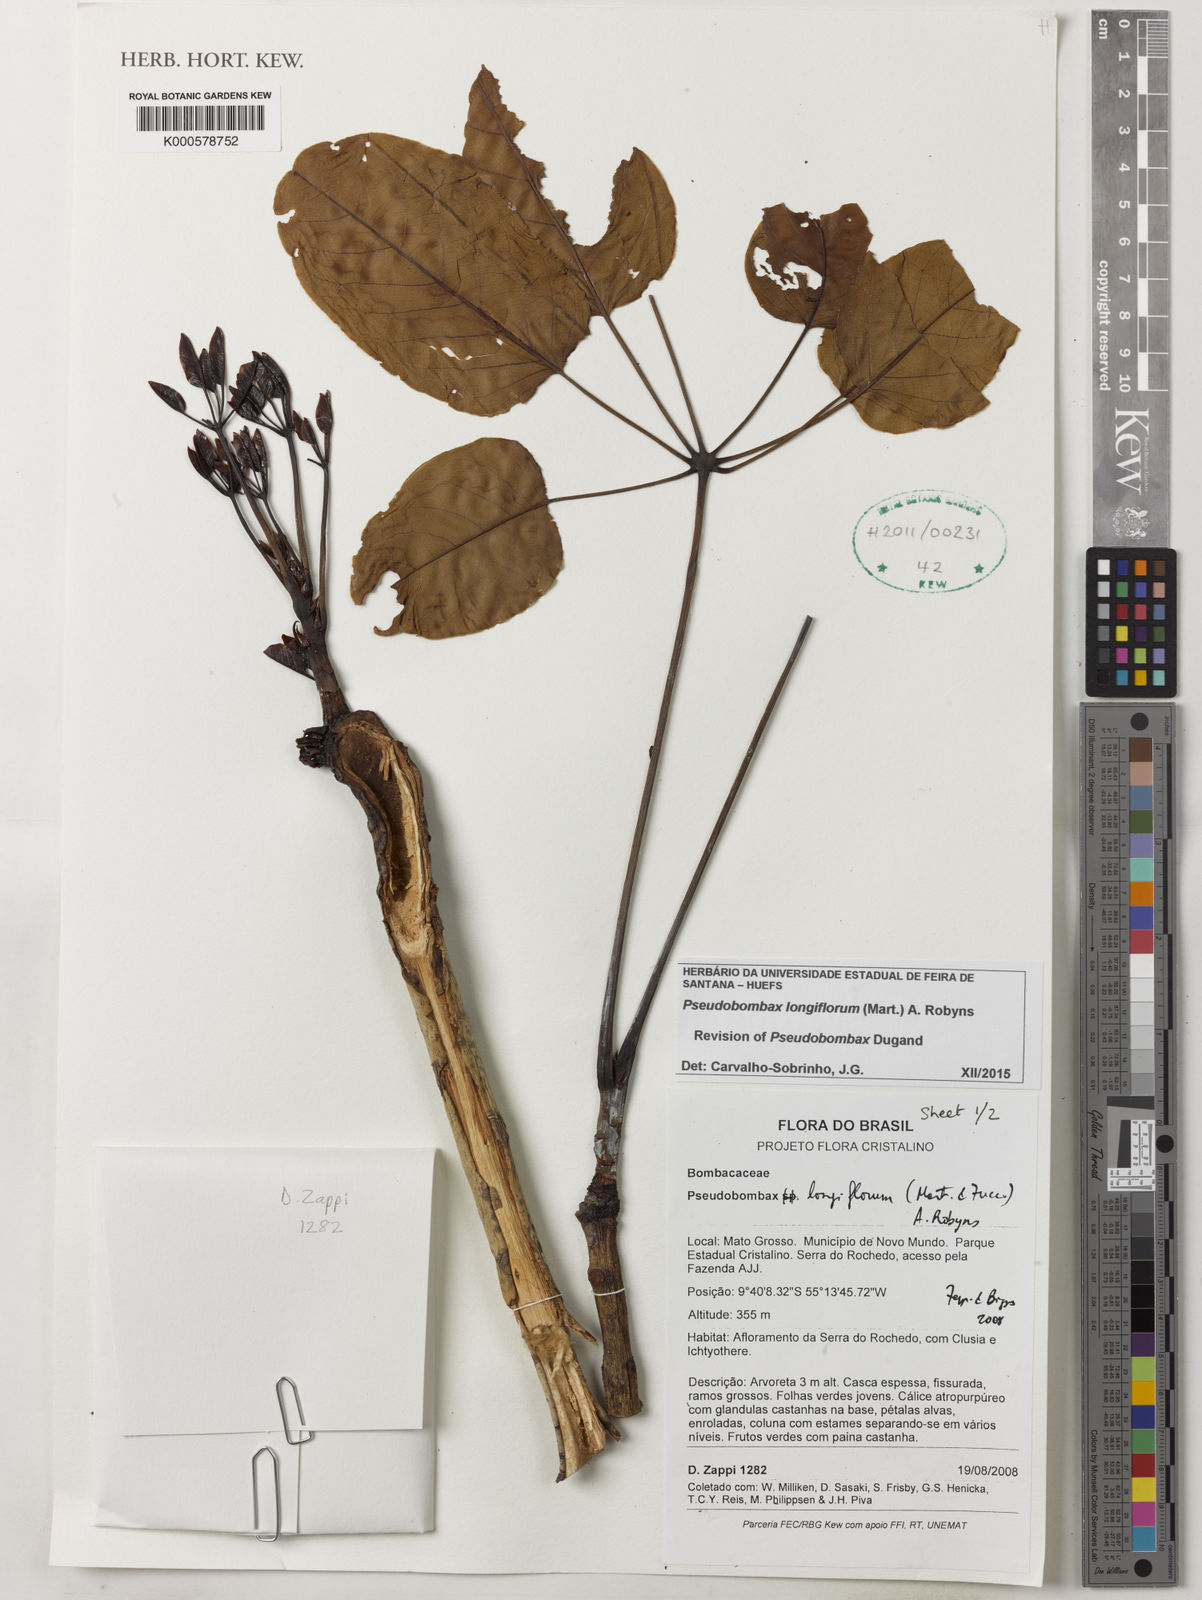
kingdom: Plantae
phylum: Tracheophyta
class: Magnoliopsida
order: Malvales
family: Malvaceae
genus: Pseudobombax
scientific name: Pseudobombax longiflorum
